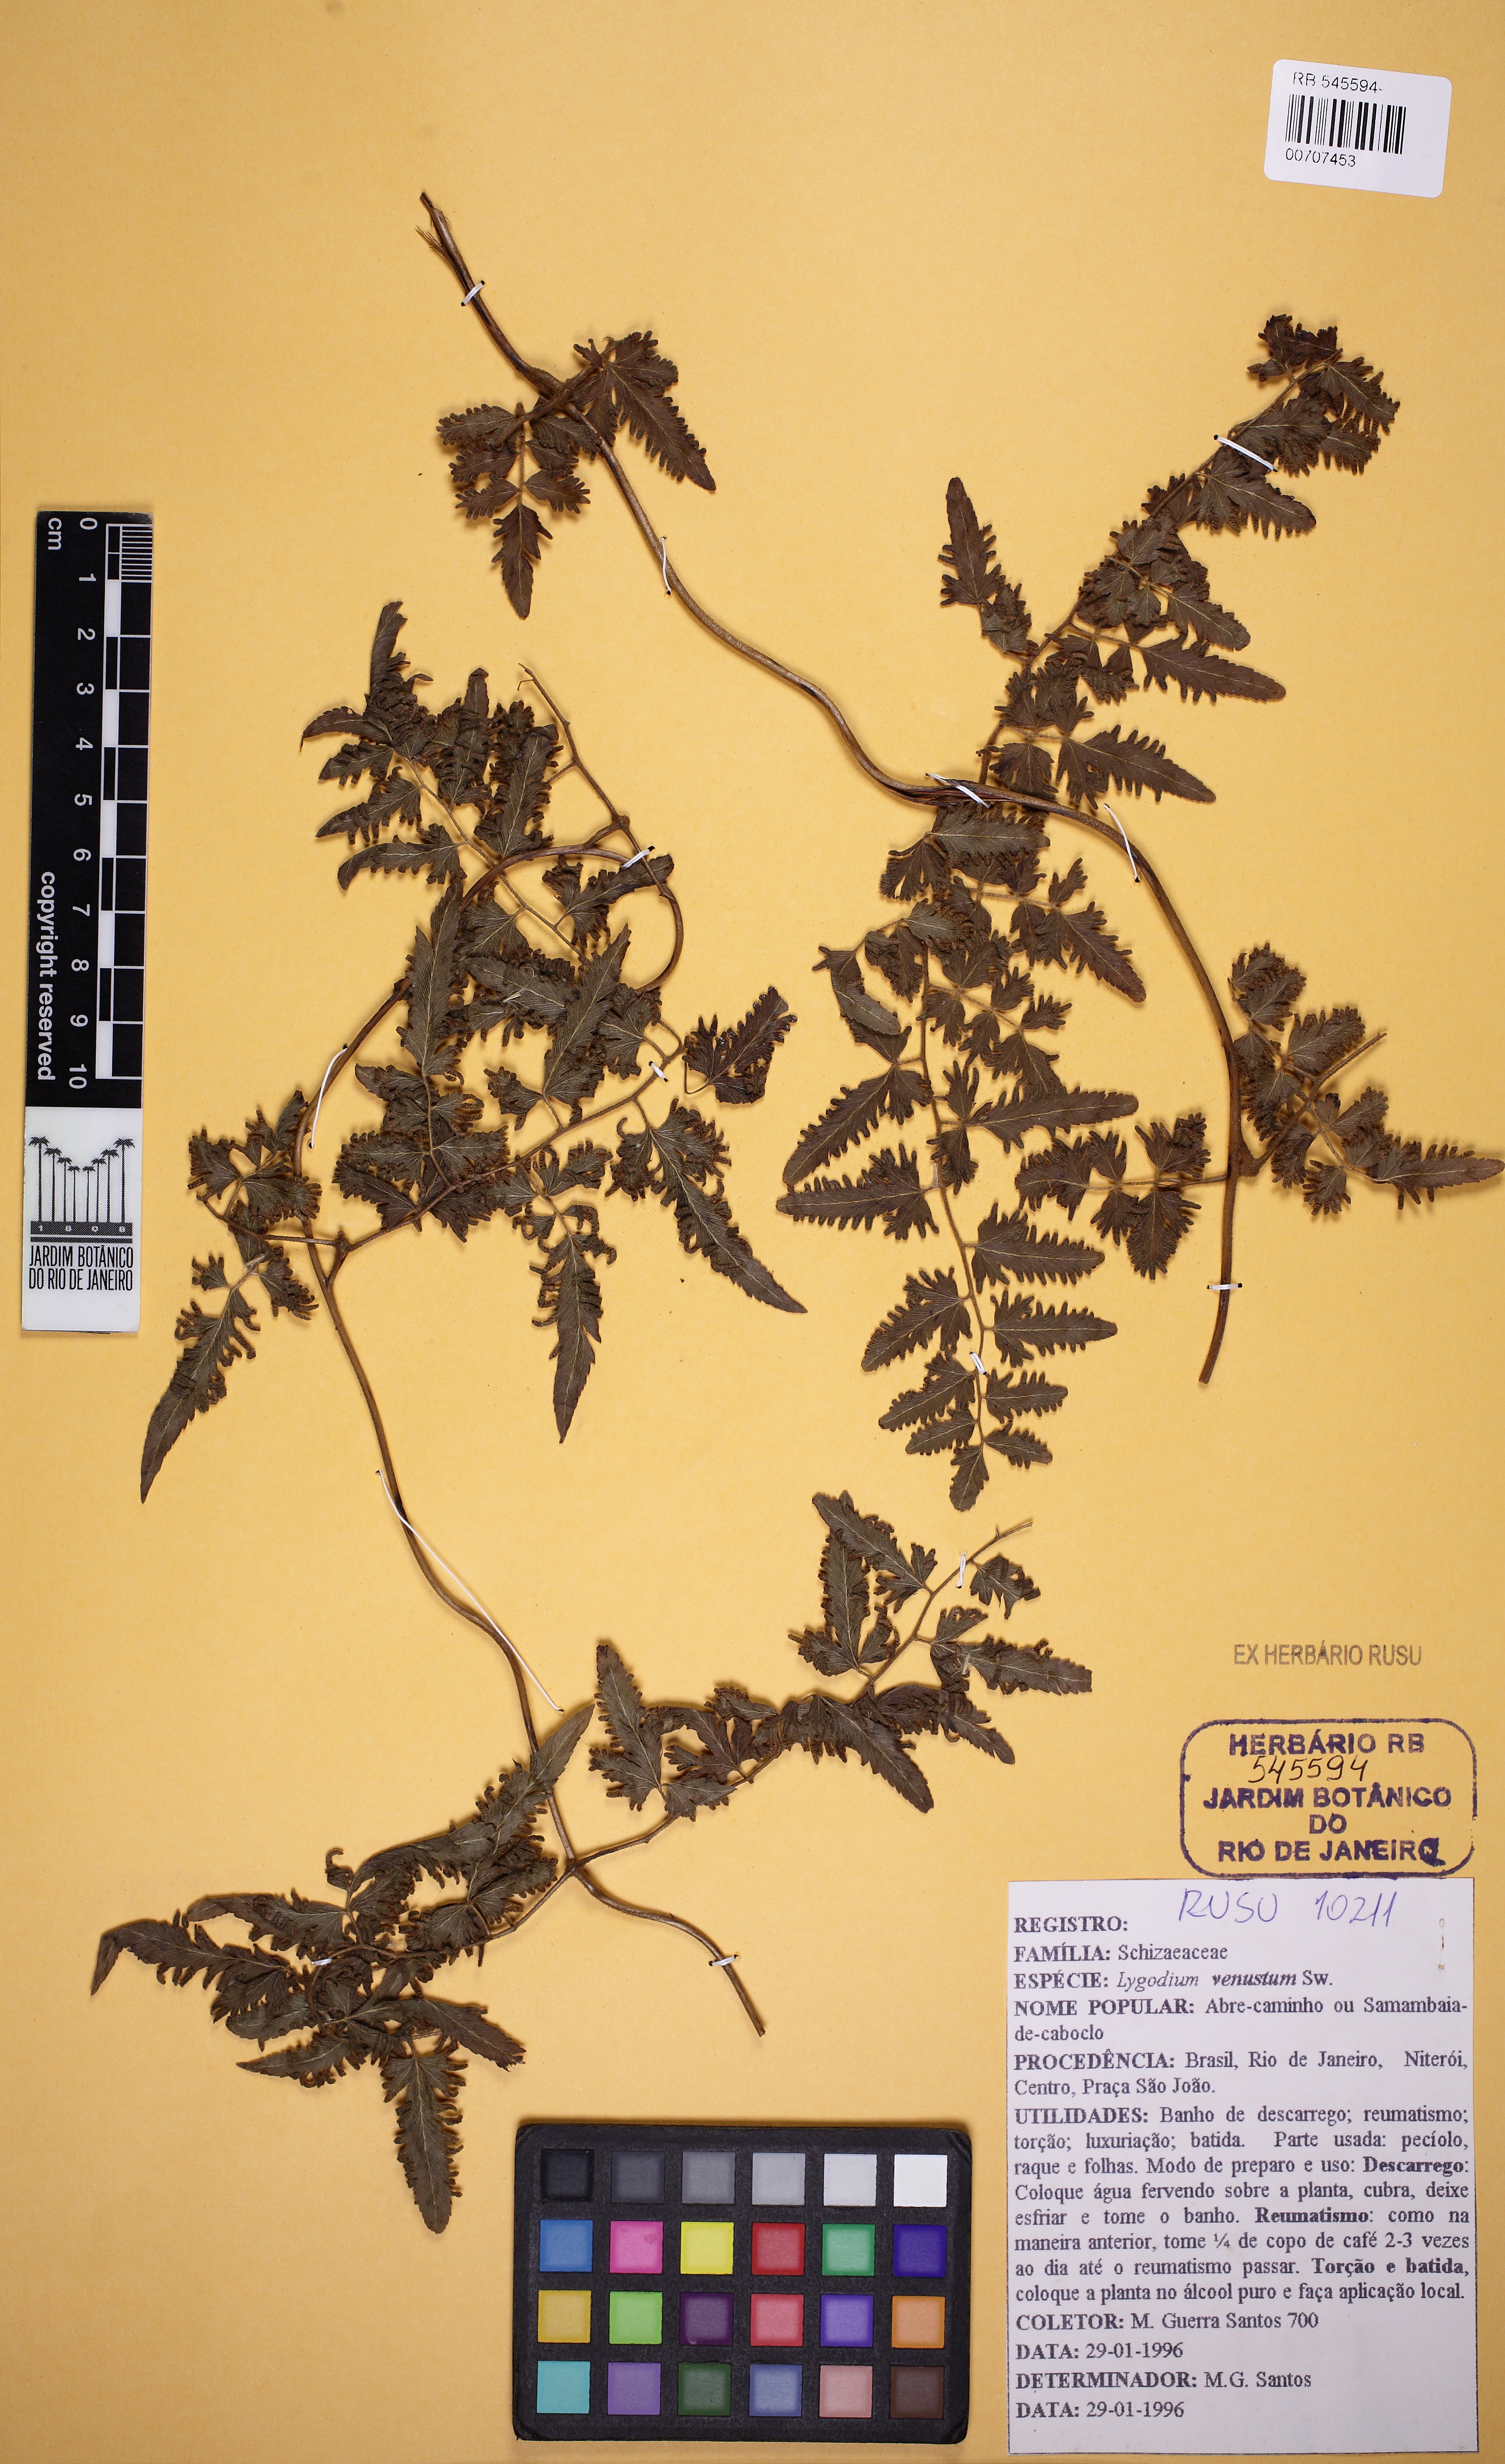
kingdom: Plantae
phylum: Tracheophyta
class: Polypodiopsida
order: Schizaeales
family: Lygodiaceae
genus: Lygodium
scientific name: Lygodium venustum
